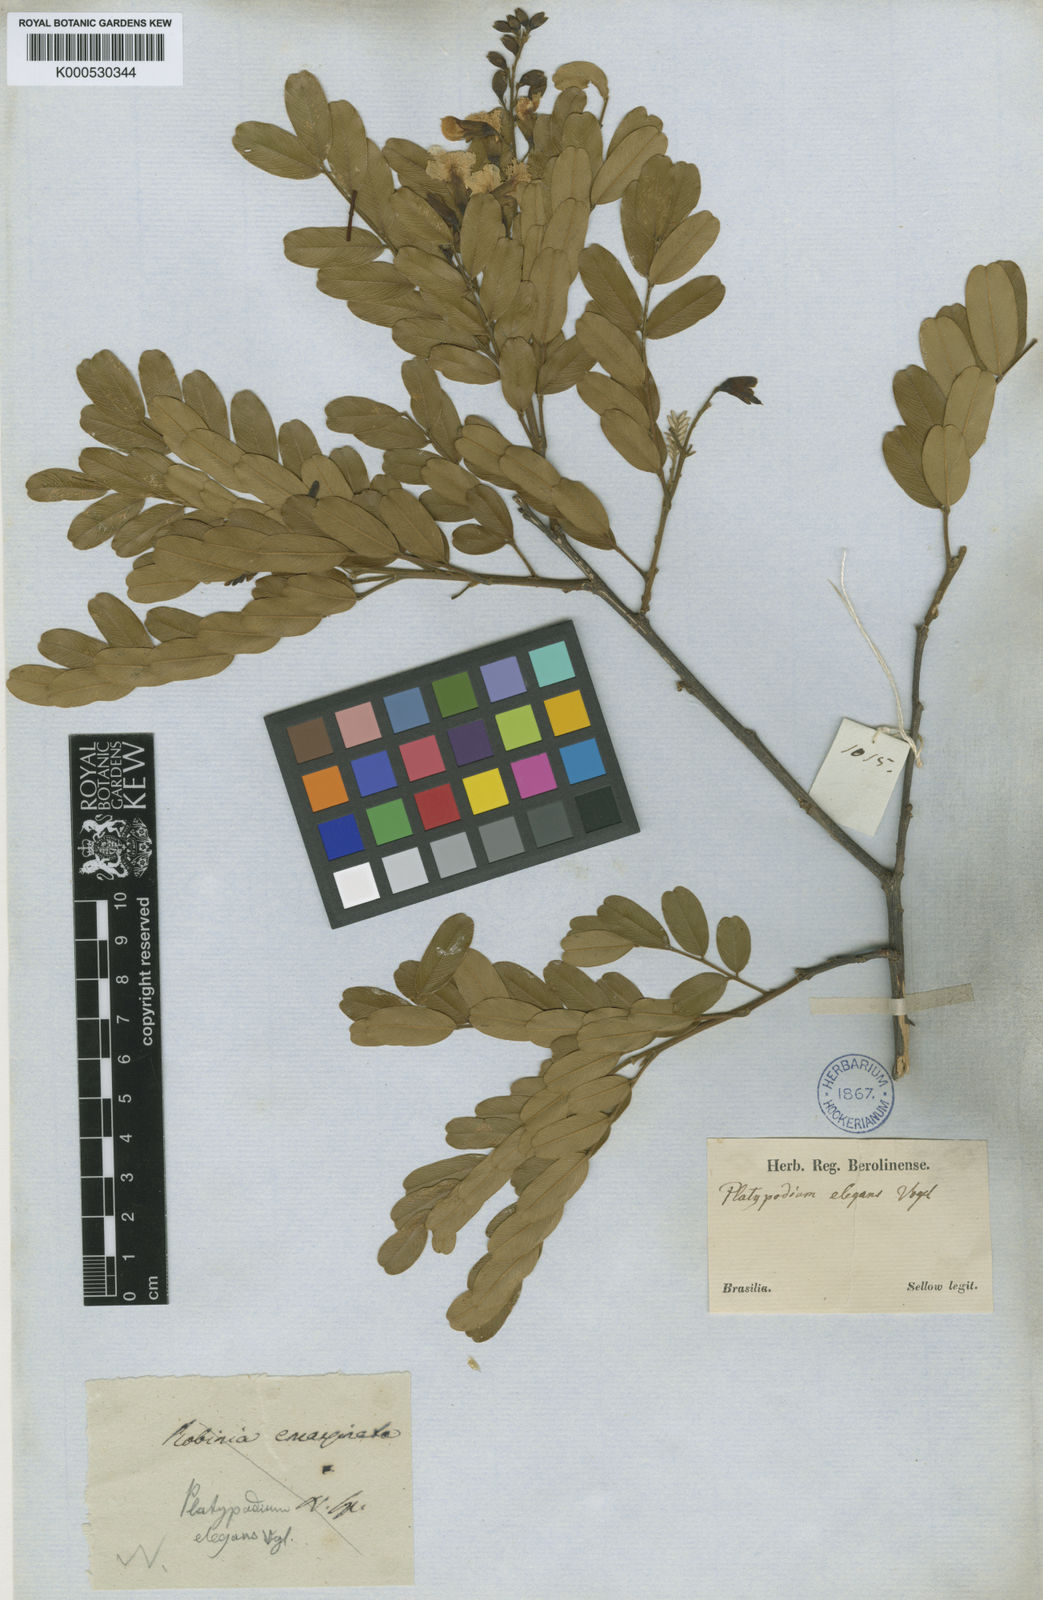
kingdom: Plantae
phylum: Tracheophyta
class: Magnoliopsida
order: Fabales
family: Fabaceae
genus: Platypodium
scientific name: Platypodium elegans
